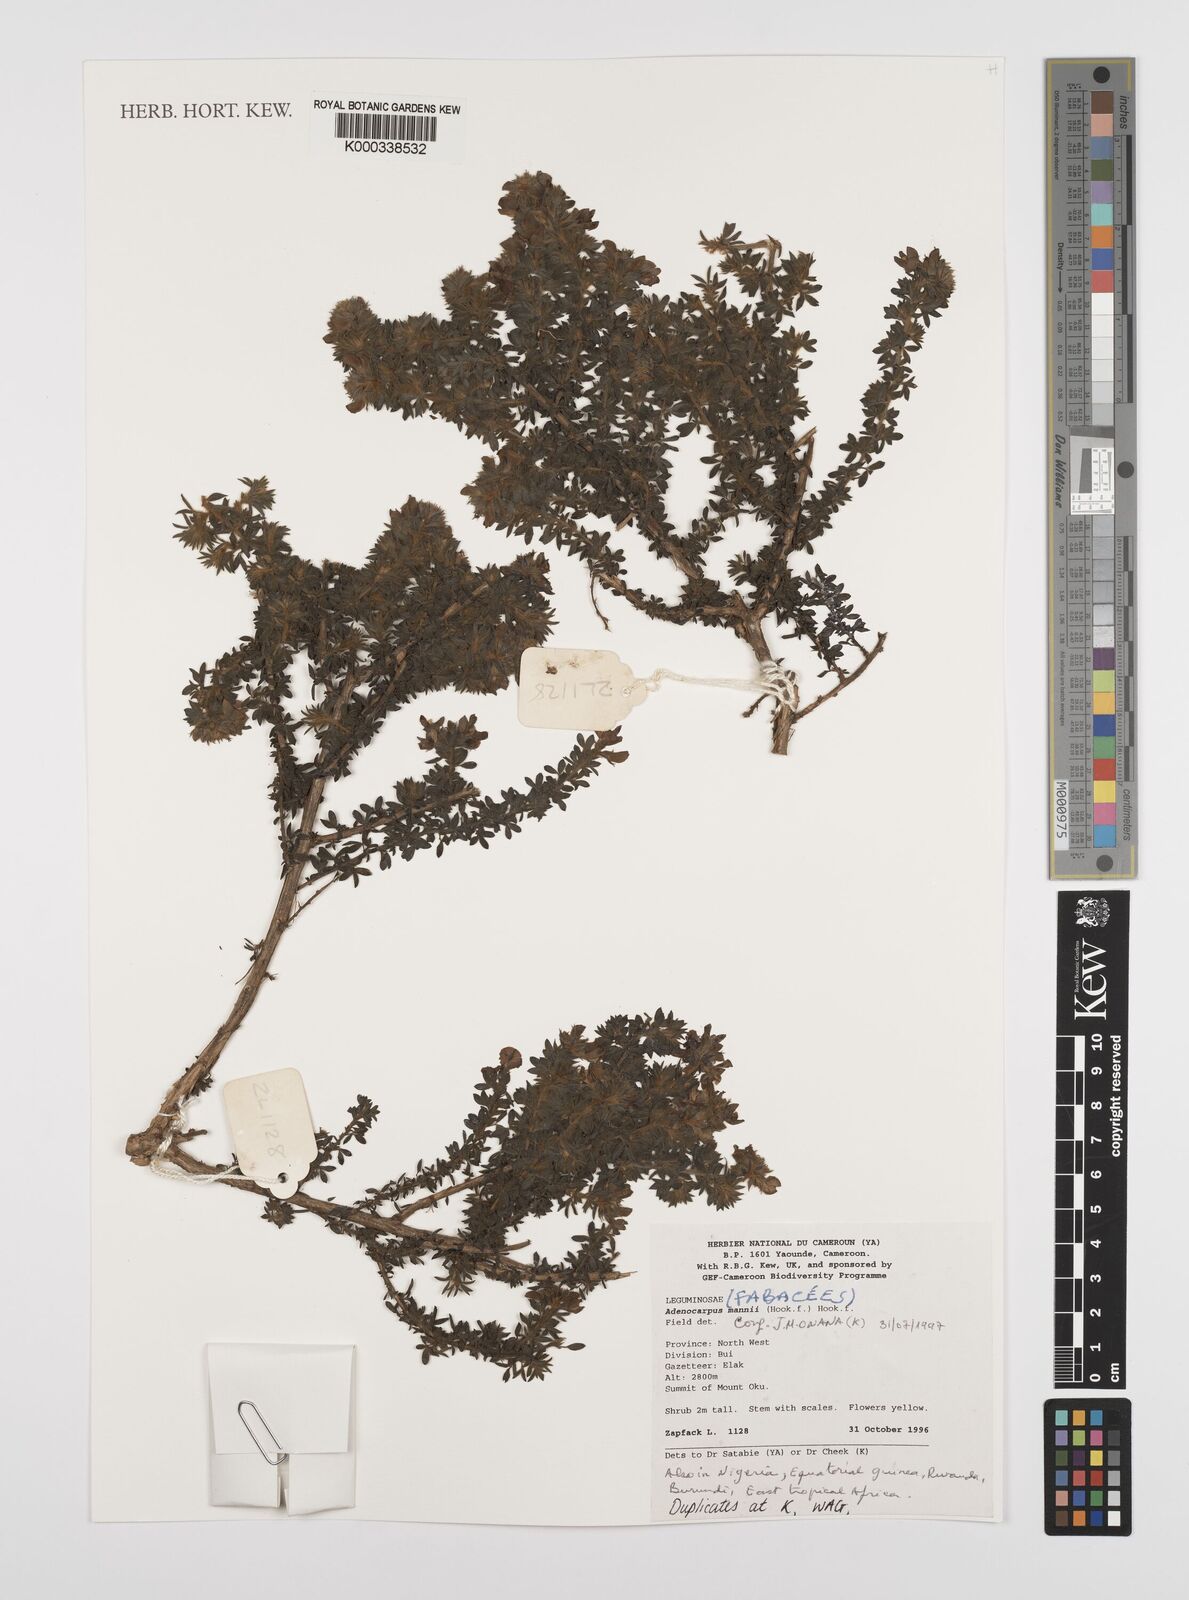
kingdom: Plantae
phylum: Tracheophyta
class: Magnoliopsida
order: Fabales
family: Fabaceae
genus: Adenocarpus
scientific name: Adenocarpus mannii
